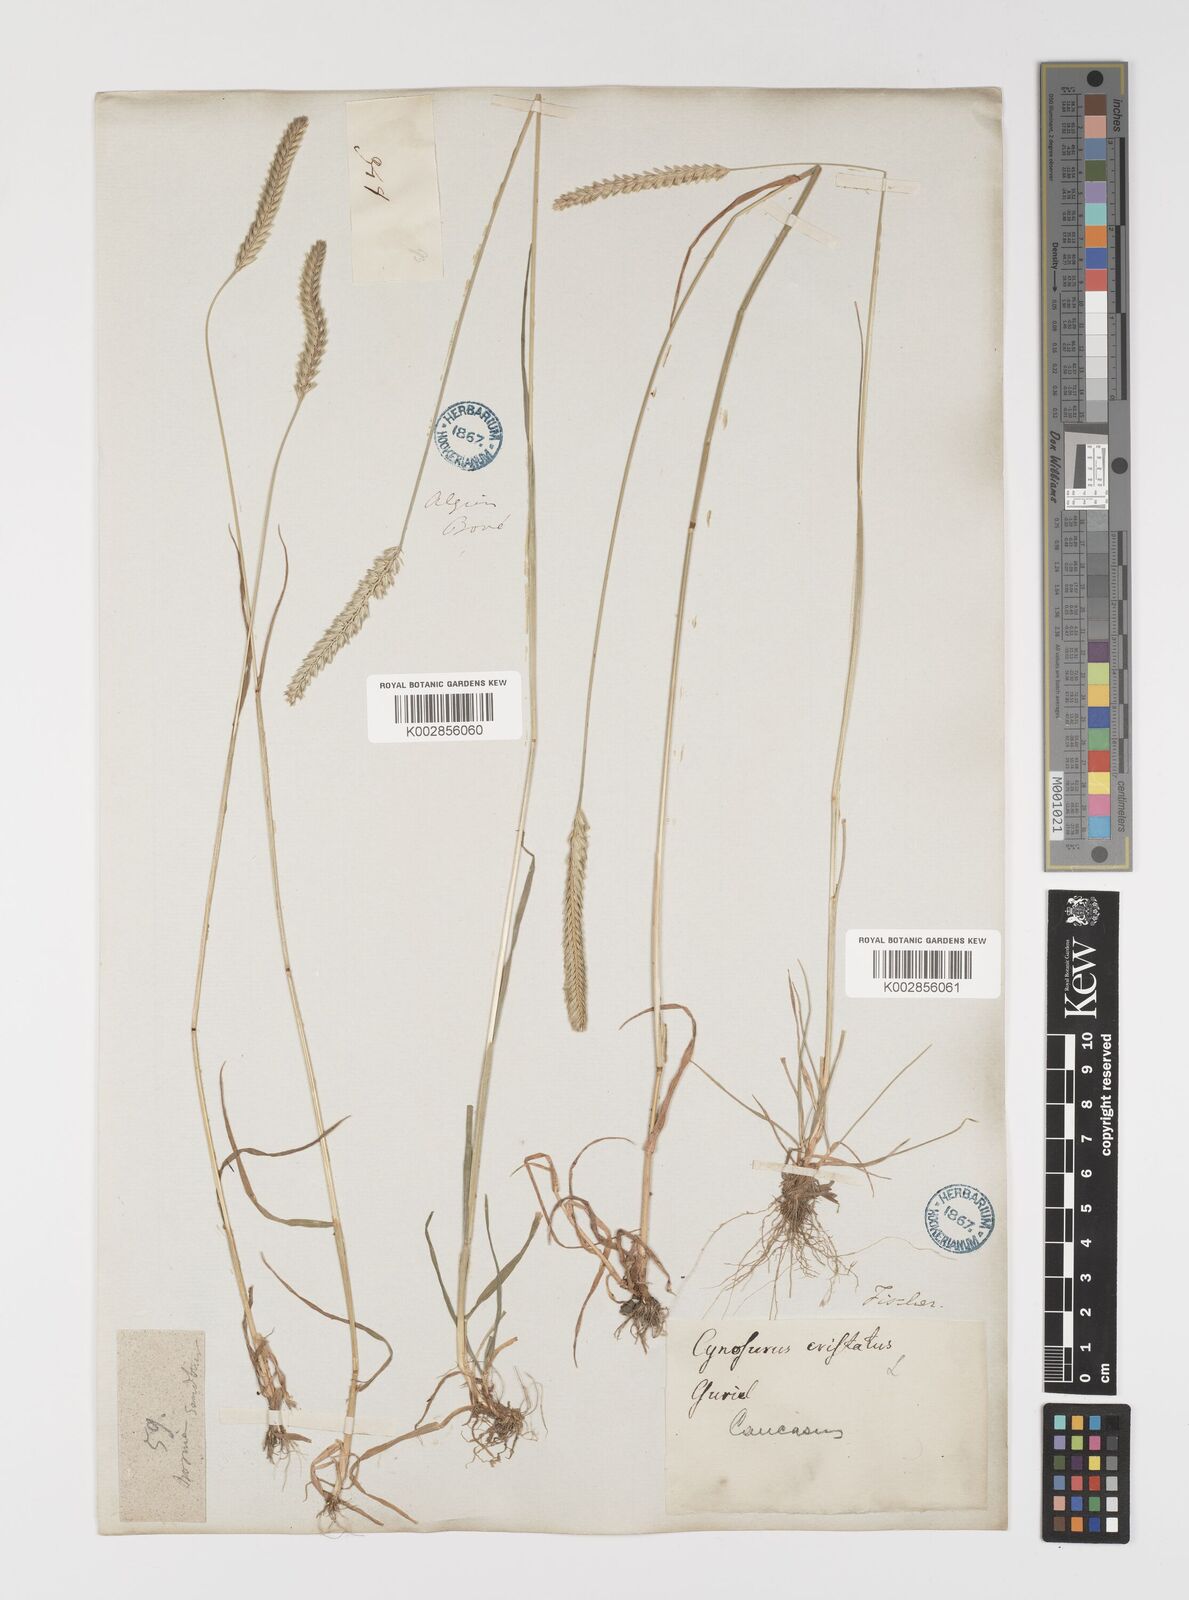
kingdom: Plantae
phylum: Tracheophyta
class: Liliopsida
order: Poales
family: Poaceae
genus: Cynosurus
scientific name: Cynosurus cristatus
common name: Crested dog's-tail
